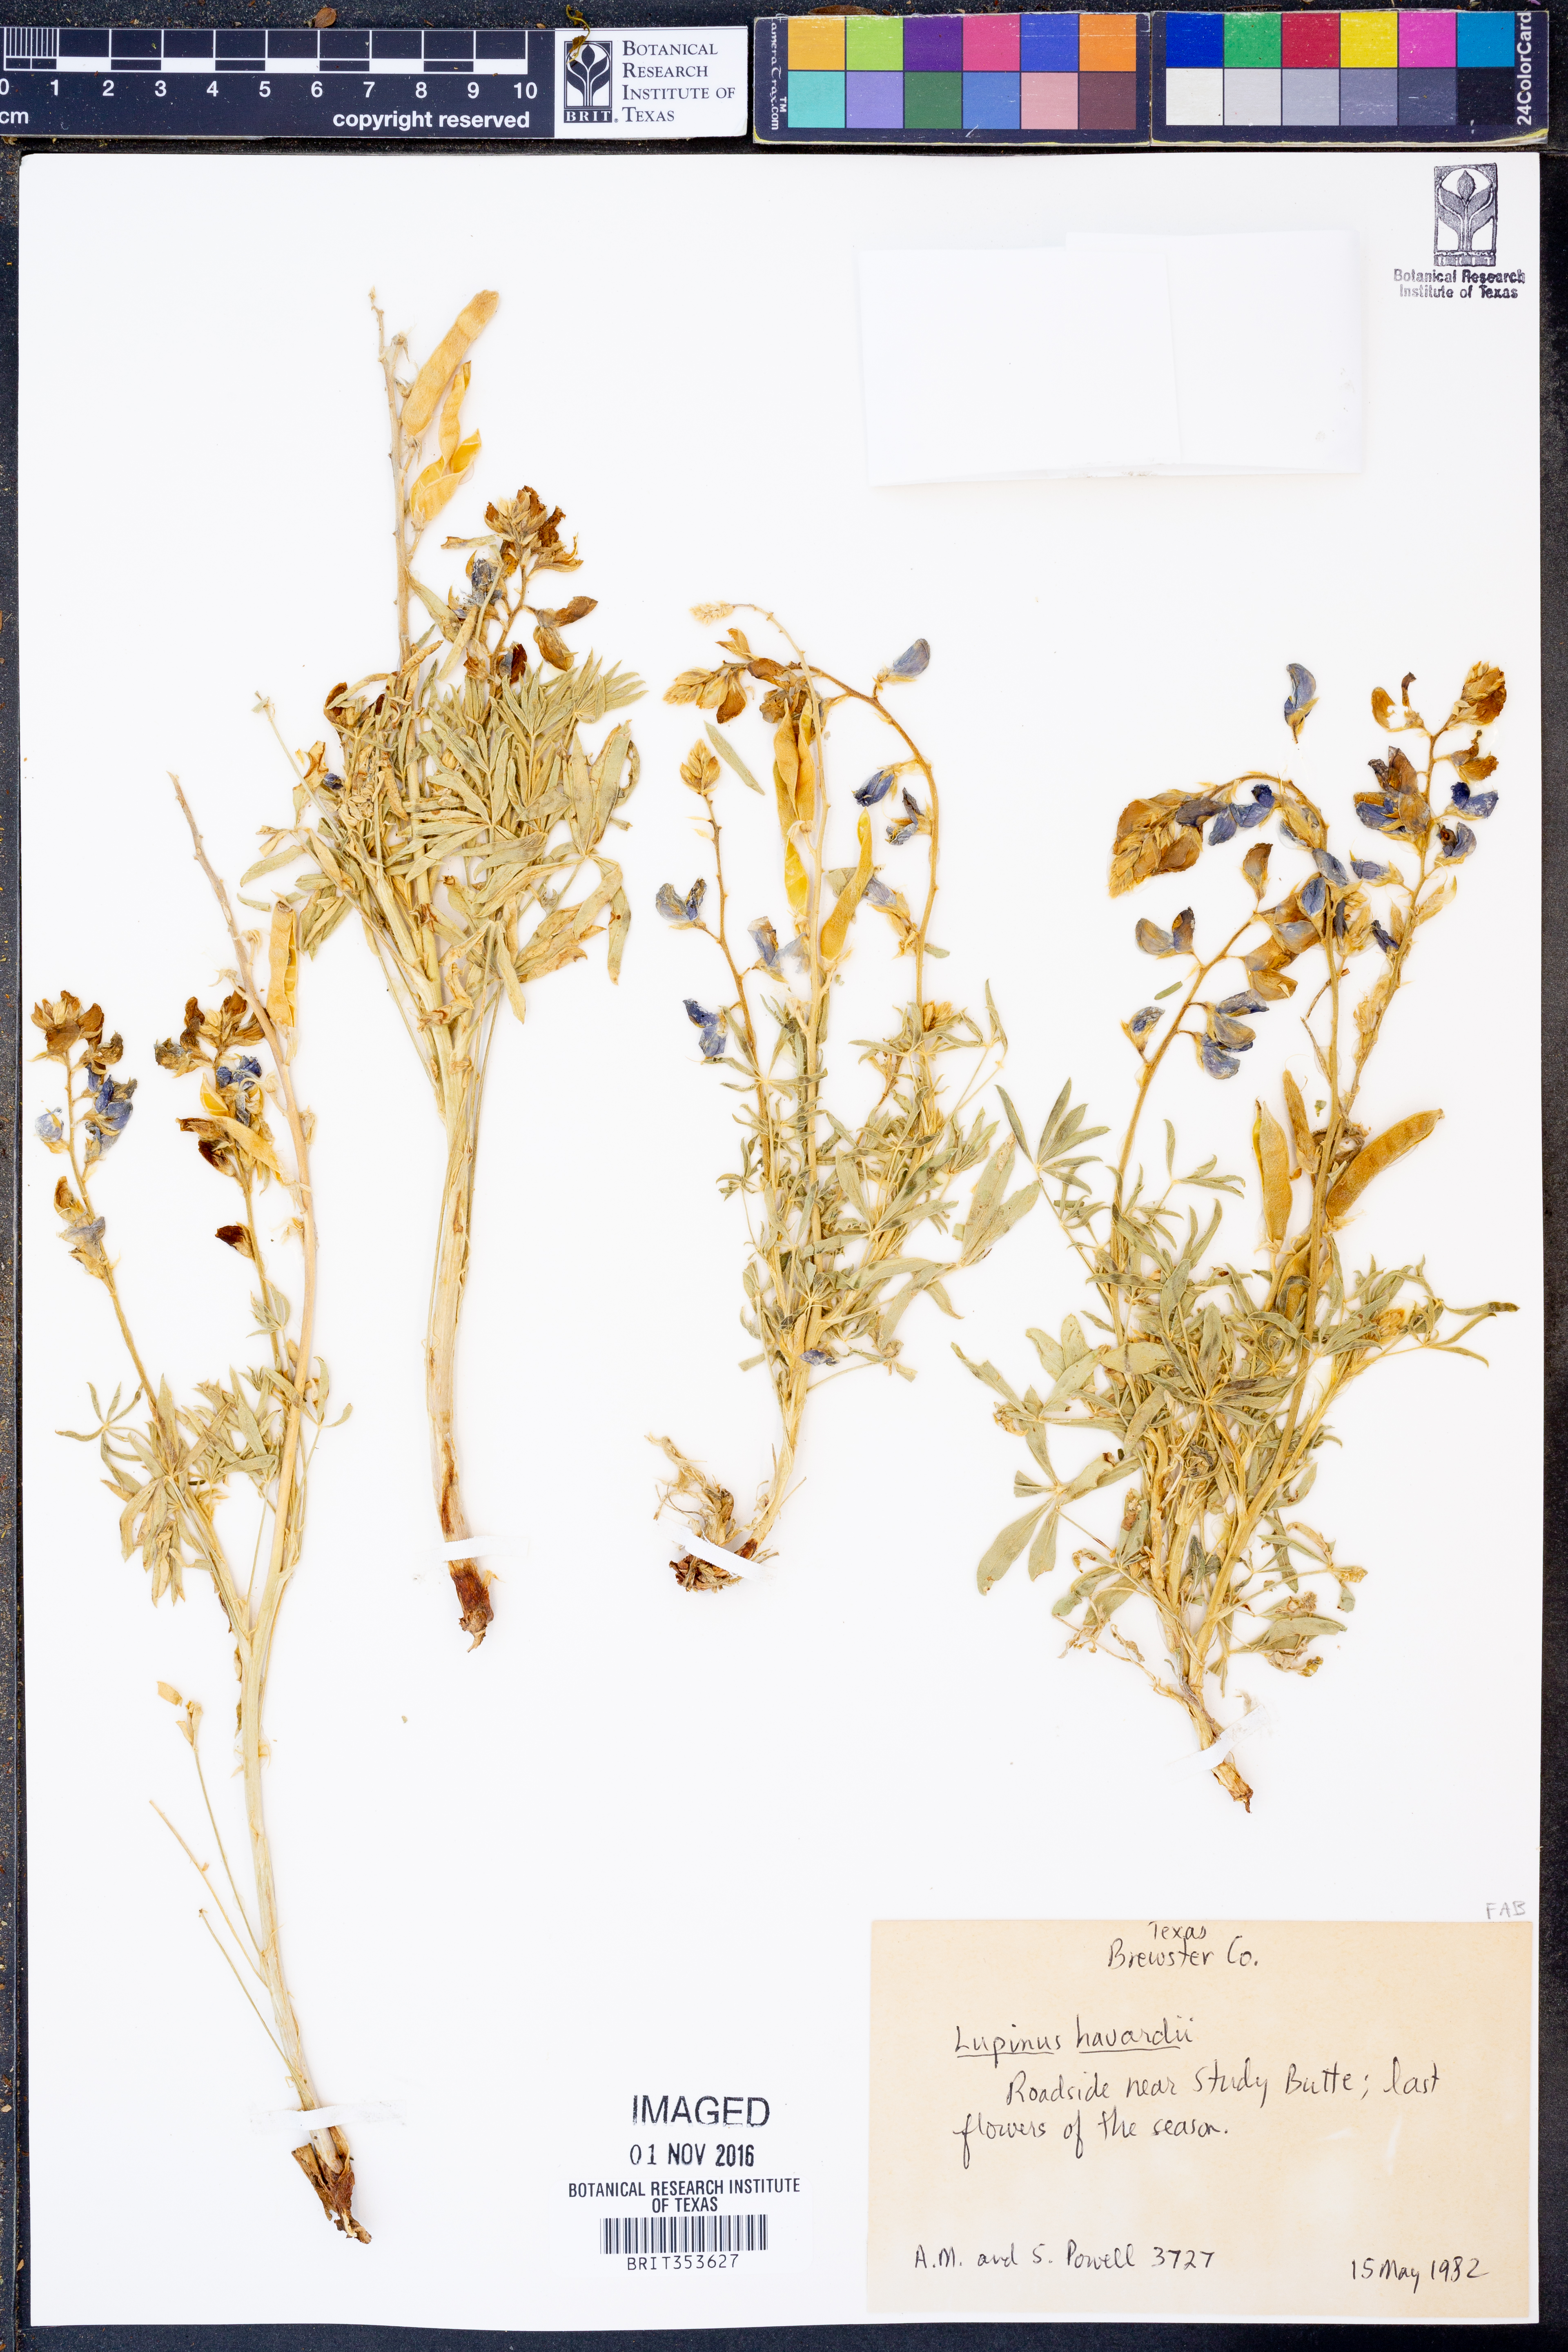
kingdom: Plantae
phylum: Tracheophyta
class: Magnoliopsida
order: Fabales
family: Fabaceae
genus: Lupinus
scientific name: Lupinus havardii
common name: Chisos bluebonnet
